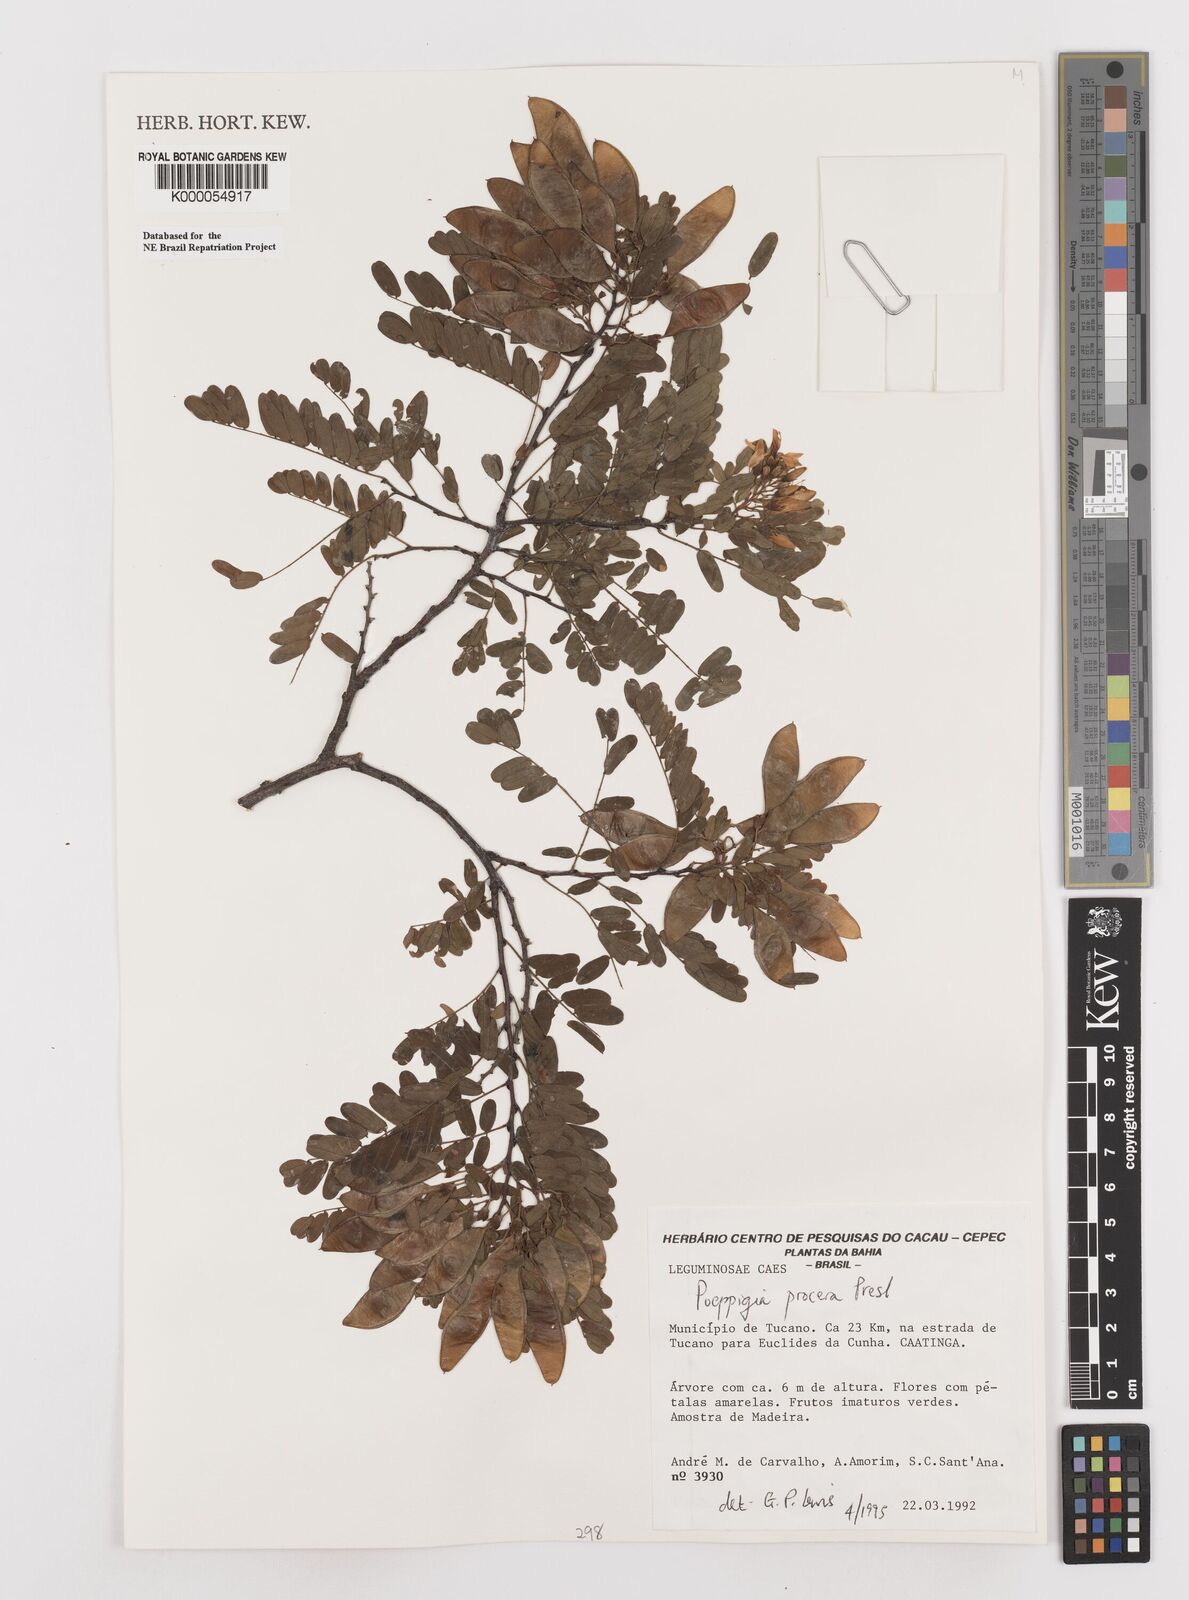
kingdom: Plantae
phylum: Tracheophyta
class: Magnoliopsida
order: Fabales
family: Fabaceae
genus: Poeppigia
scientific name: Poeppigia procera
